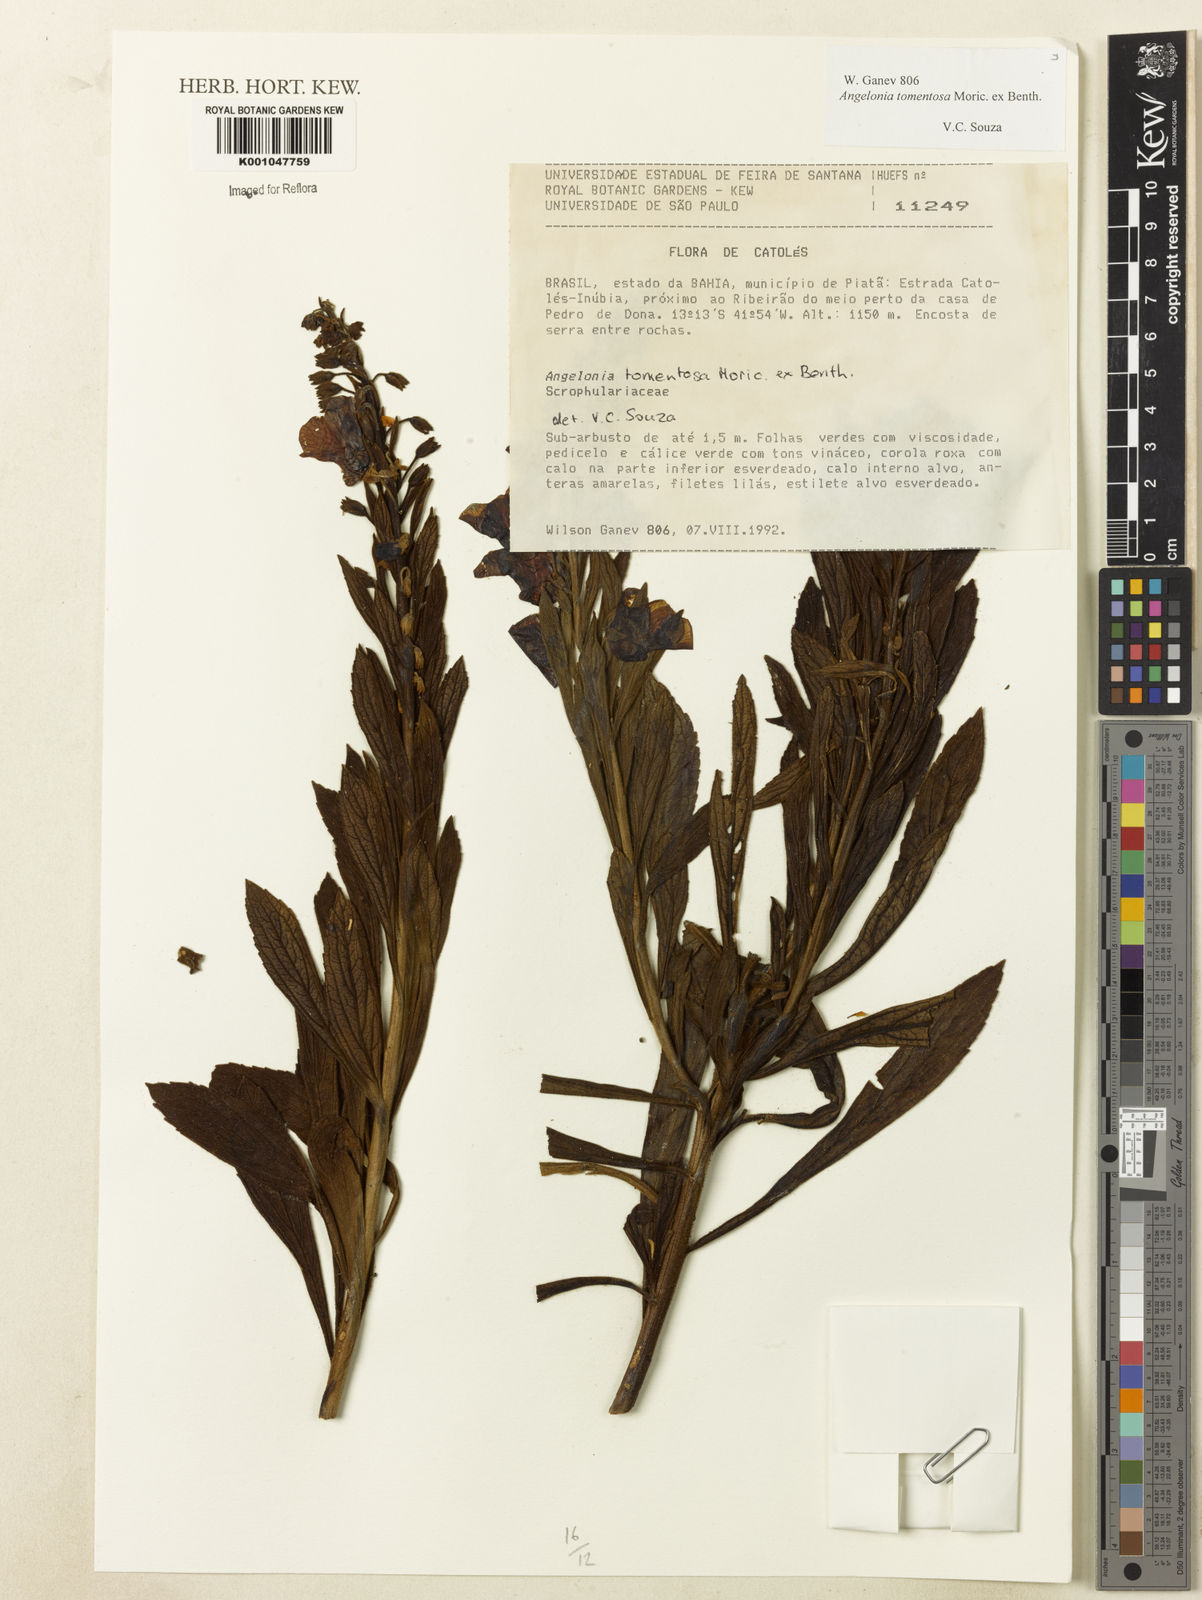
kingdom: Plantae
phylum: Tracheophyta
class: Magnoliopsida
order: Lamiales
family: Plantaginaceae
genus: Angelonia
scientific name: Angelonia tomentosa
